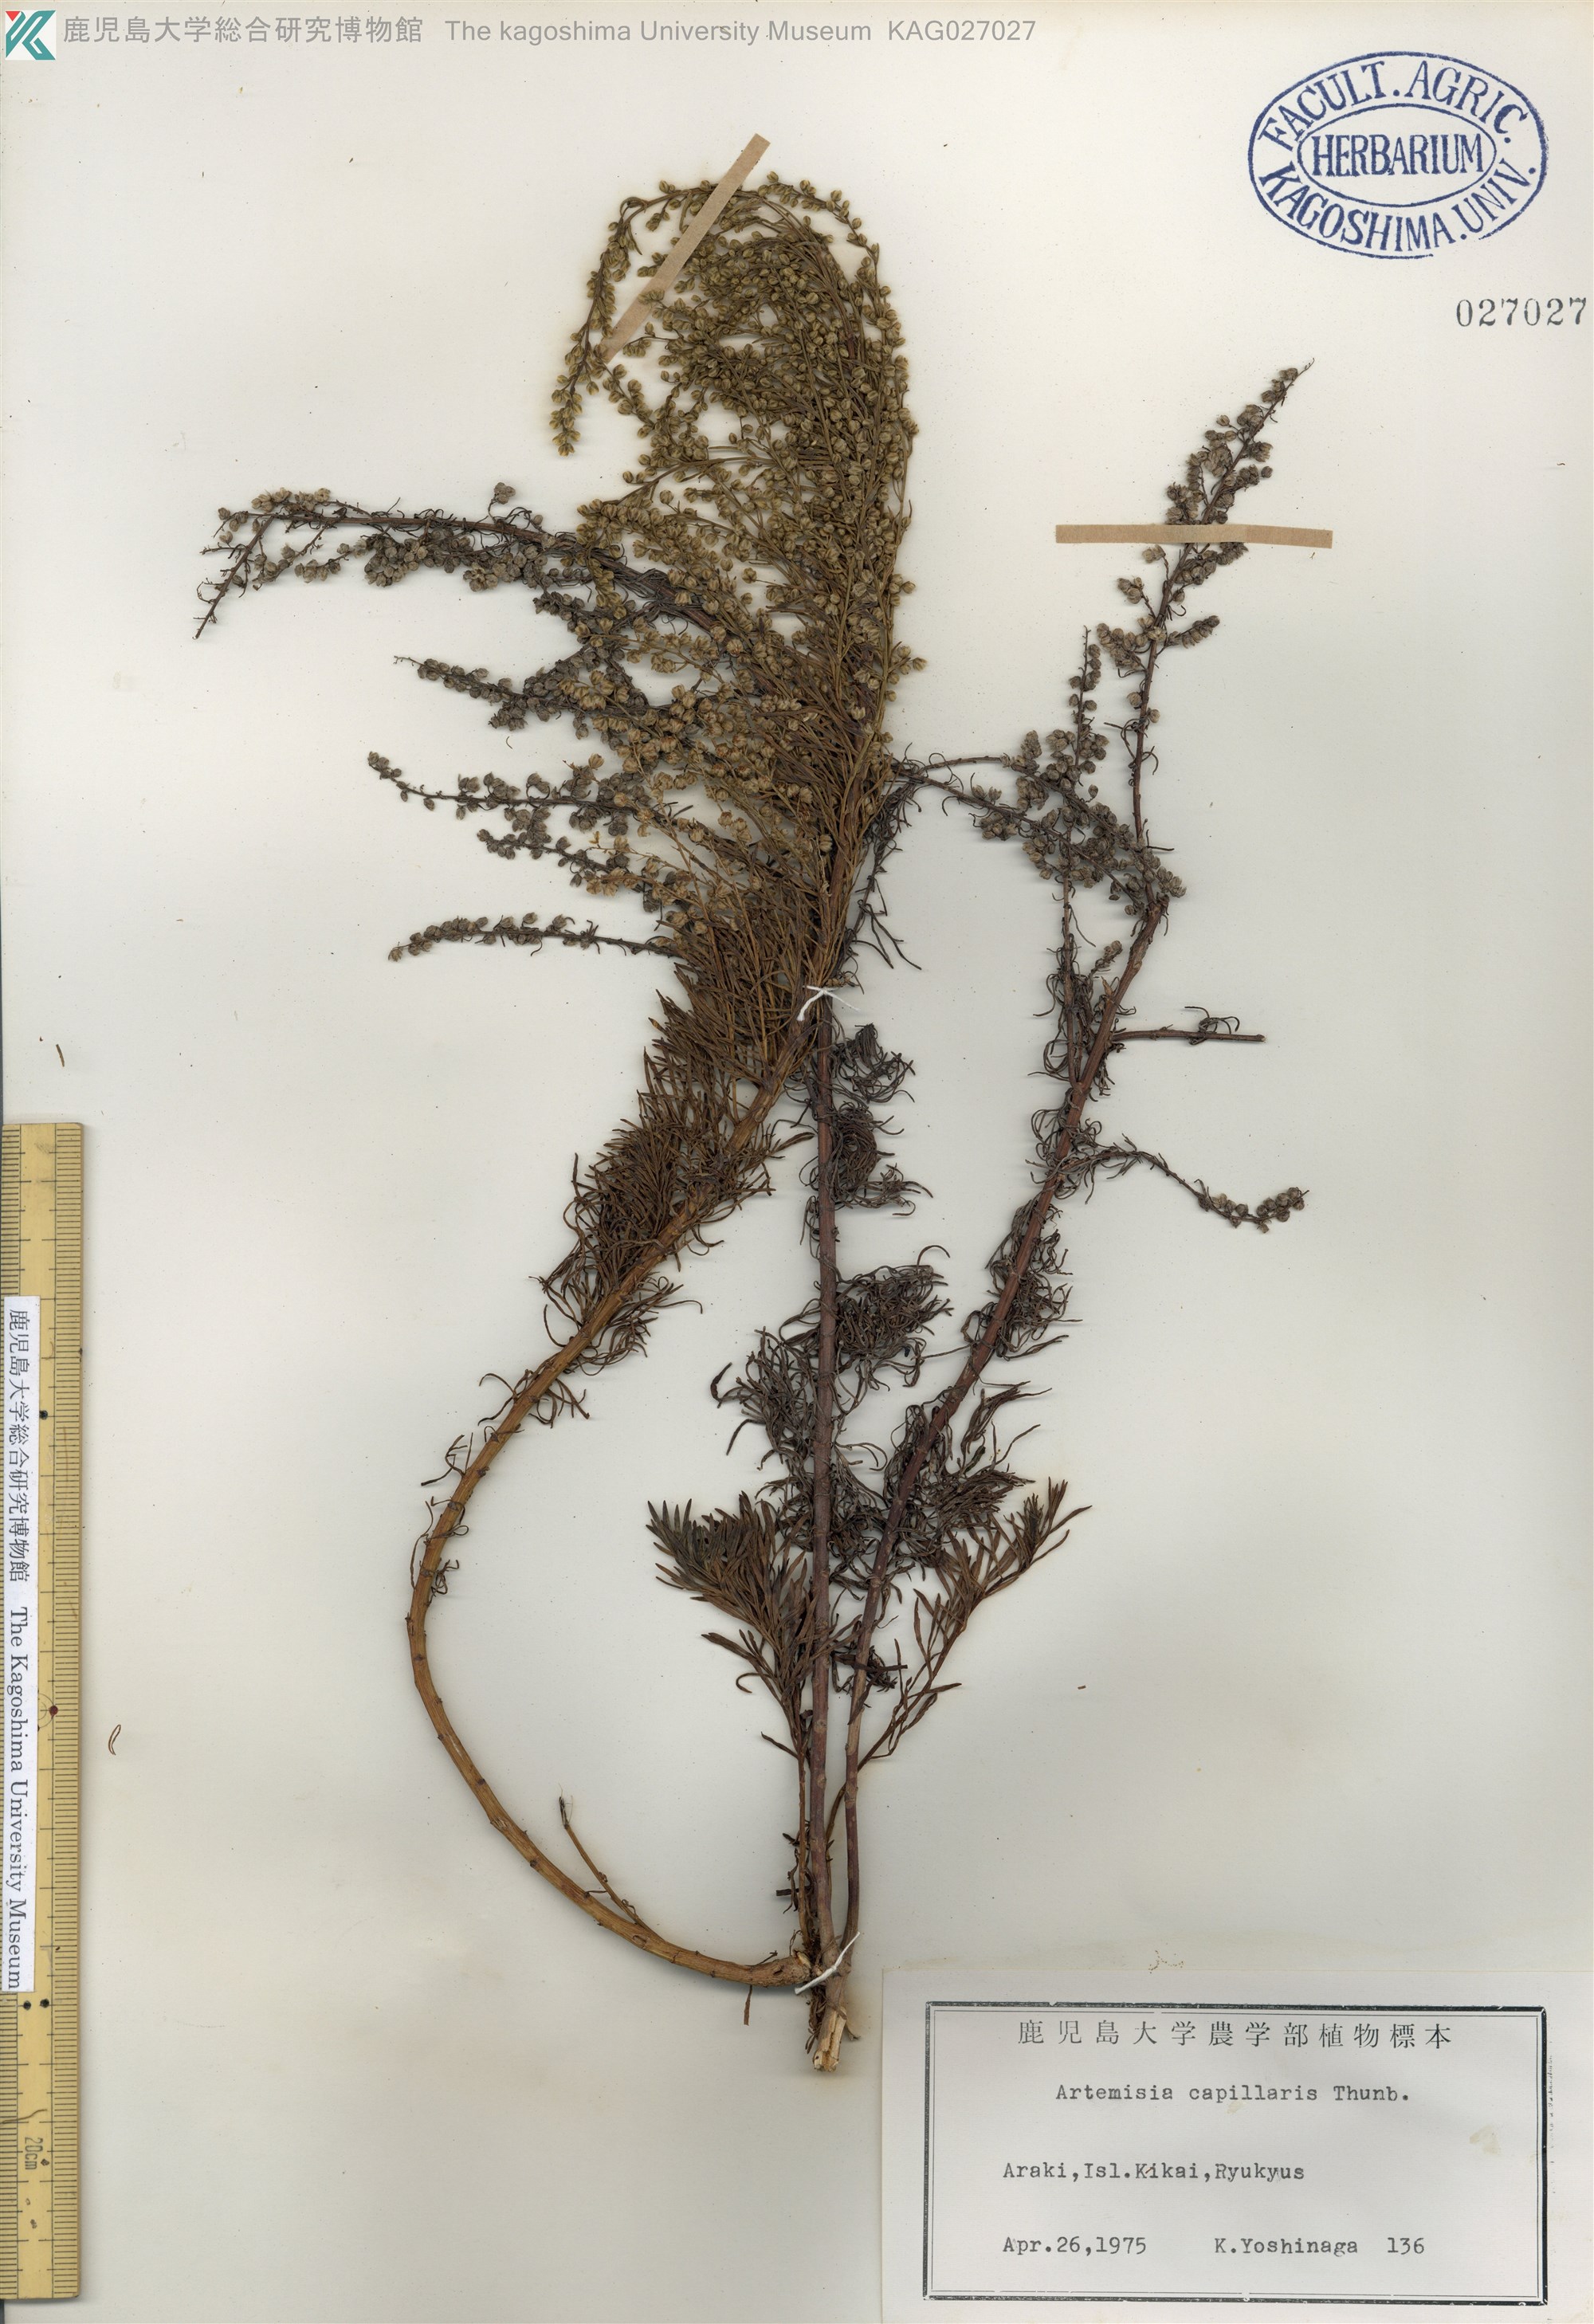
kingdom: Plantae
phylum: Tracheophyta
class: Magnoliopsida
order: Asterales
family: Asteraceae
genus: Artemisia
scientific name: Artemisia capillaris
